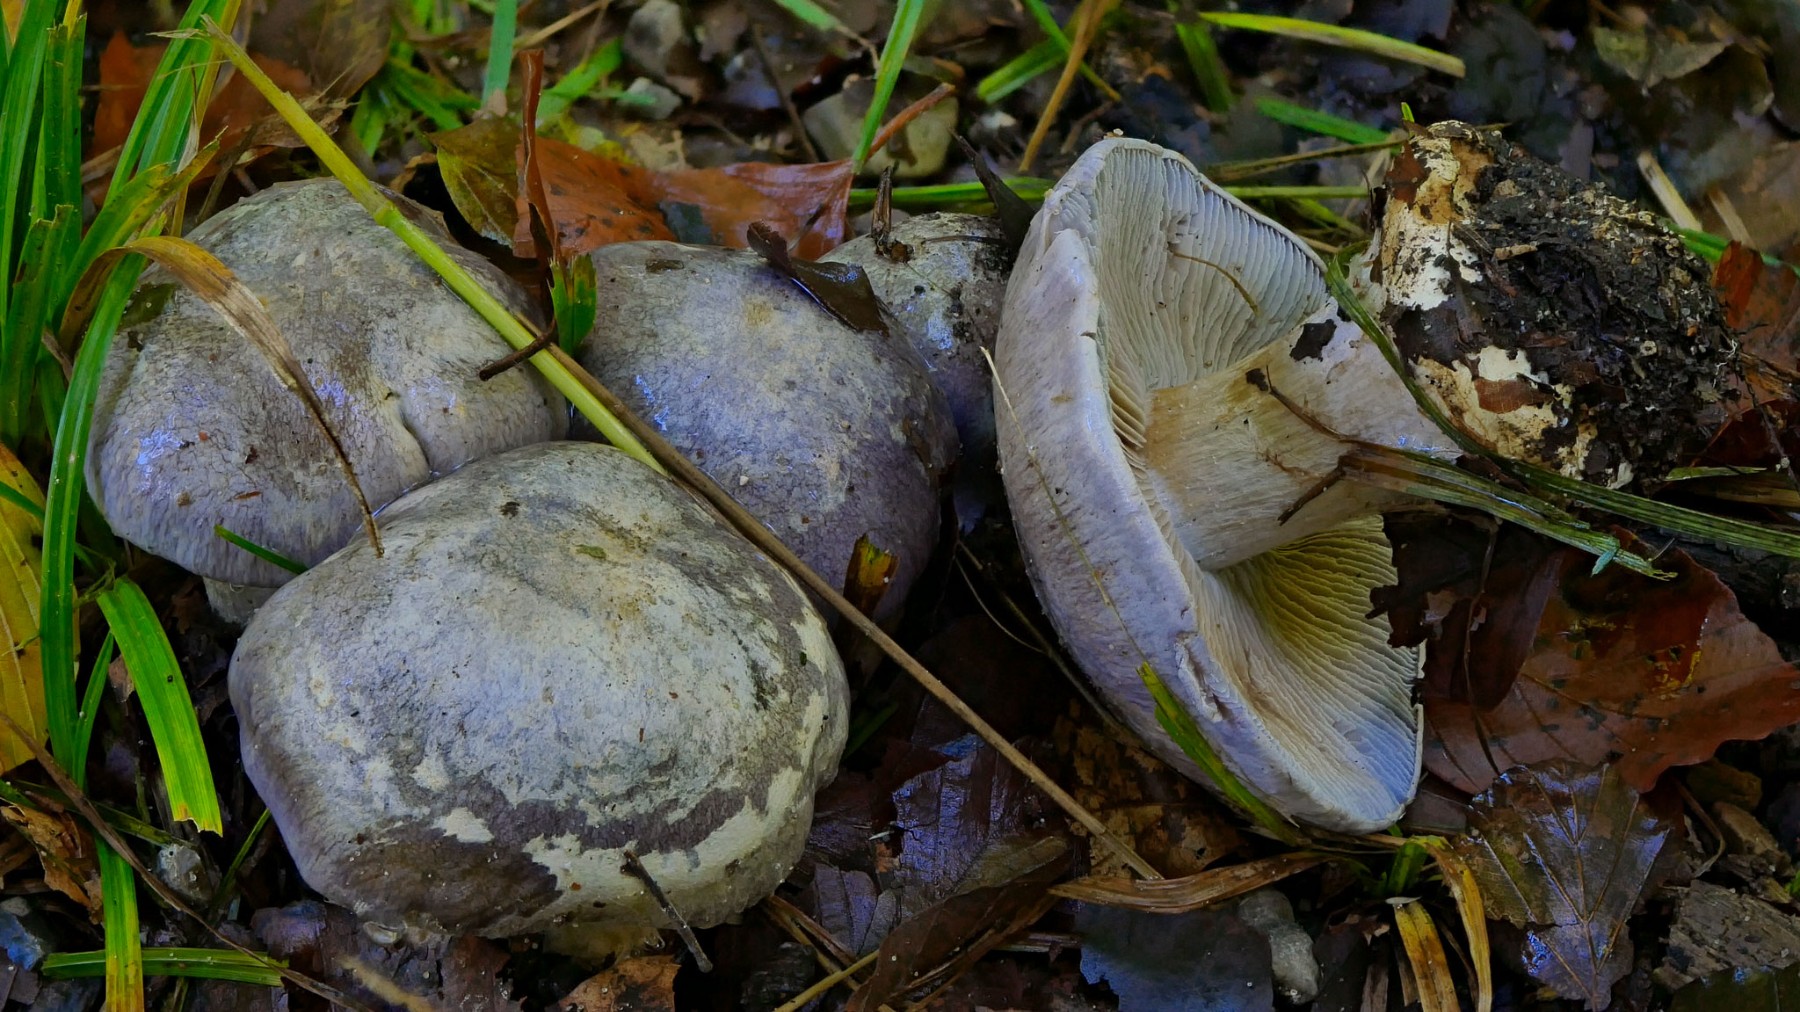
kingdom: Fungi
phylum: Basidiomycota
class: Agaricomycetes
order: Agaricales
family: Cortinariaceae
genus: Cortinarius
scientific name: Cortinarius caerulescens
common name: blåkødet slørhat
